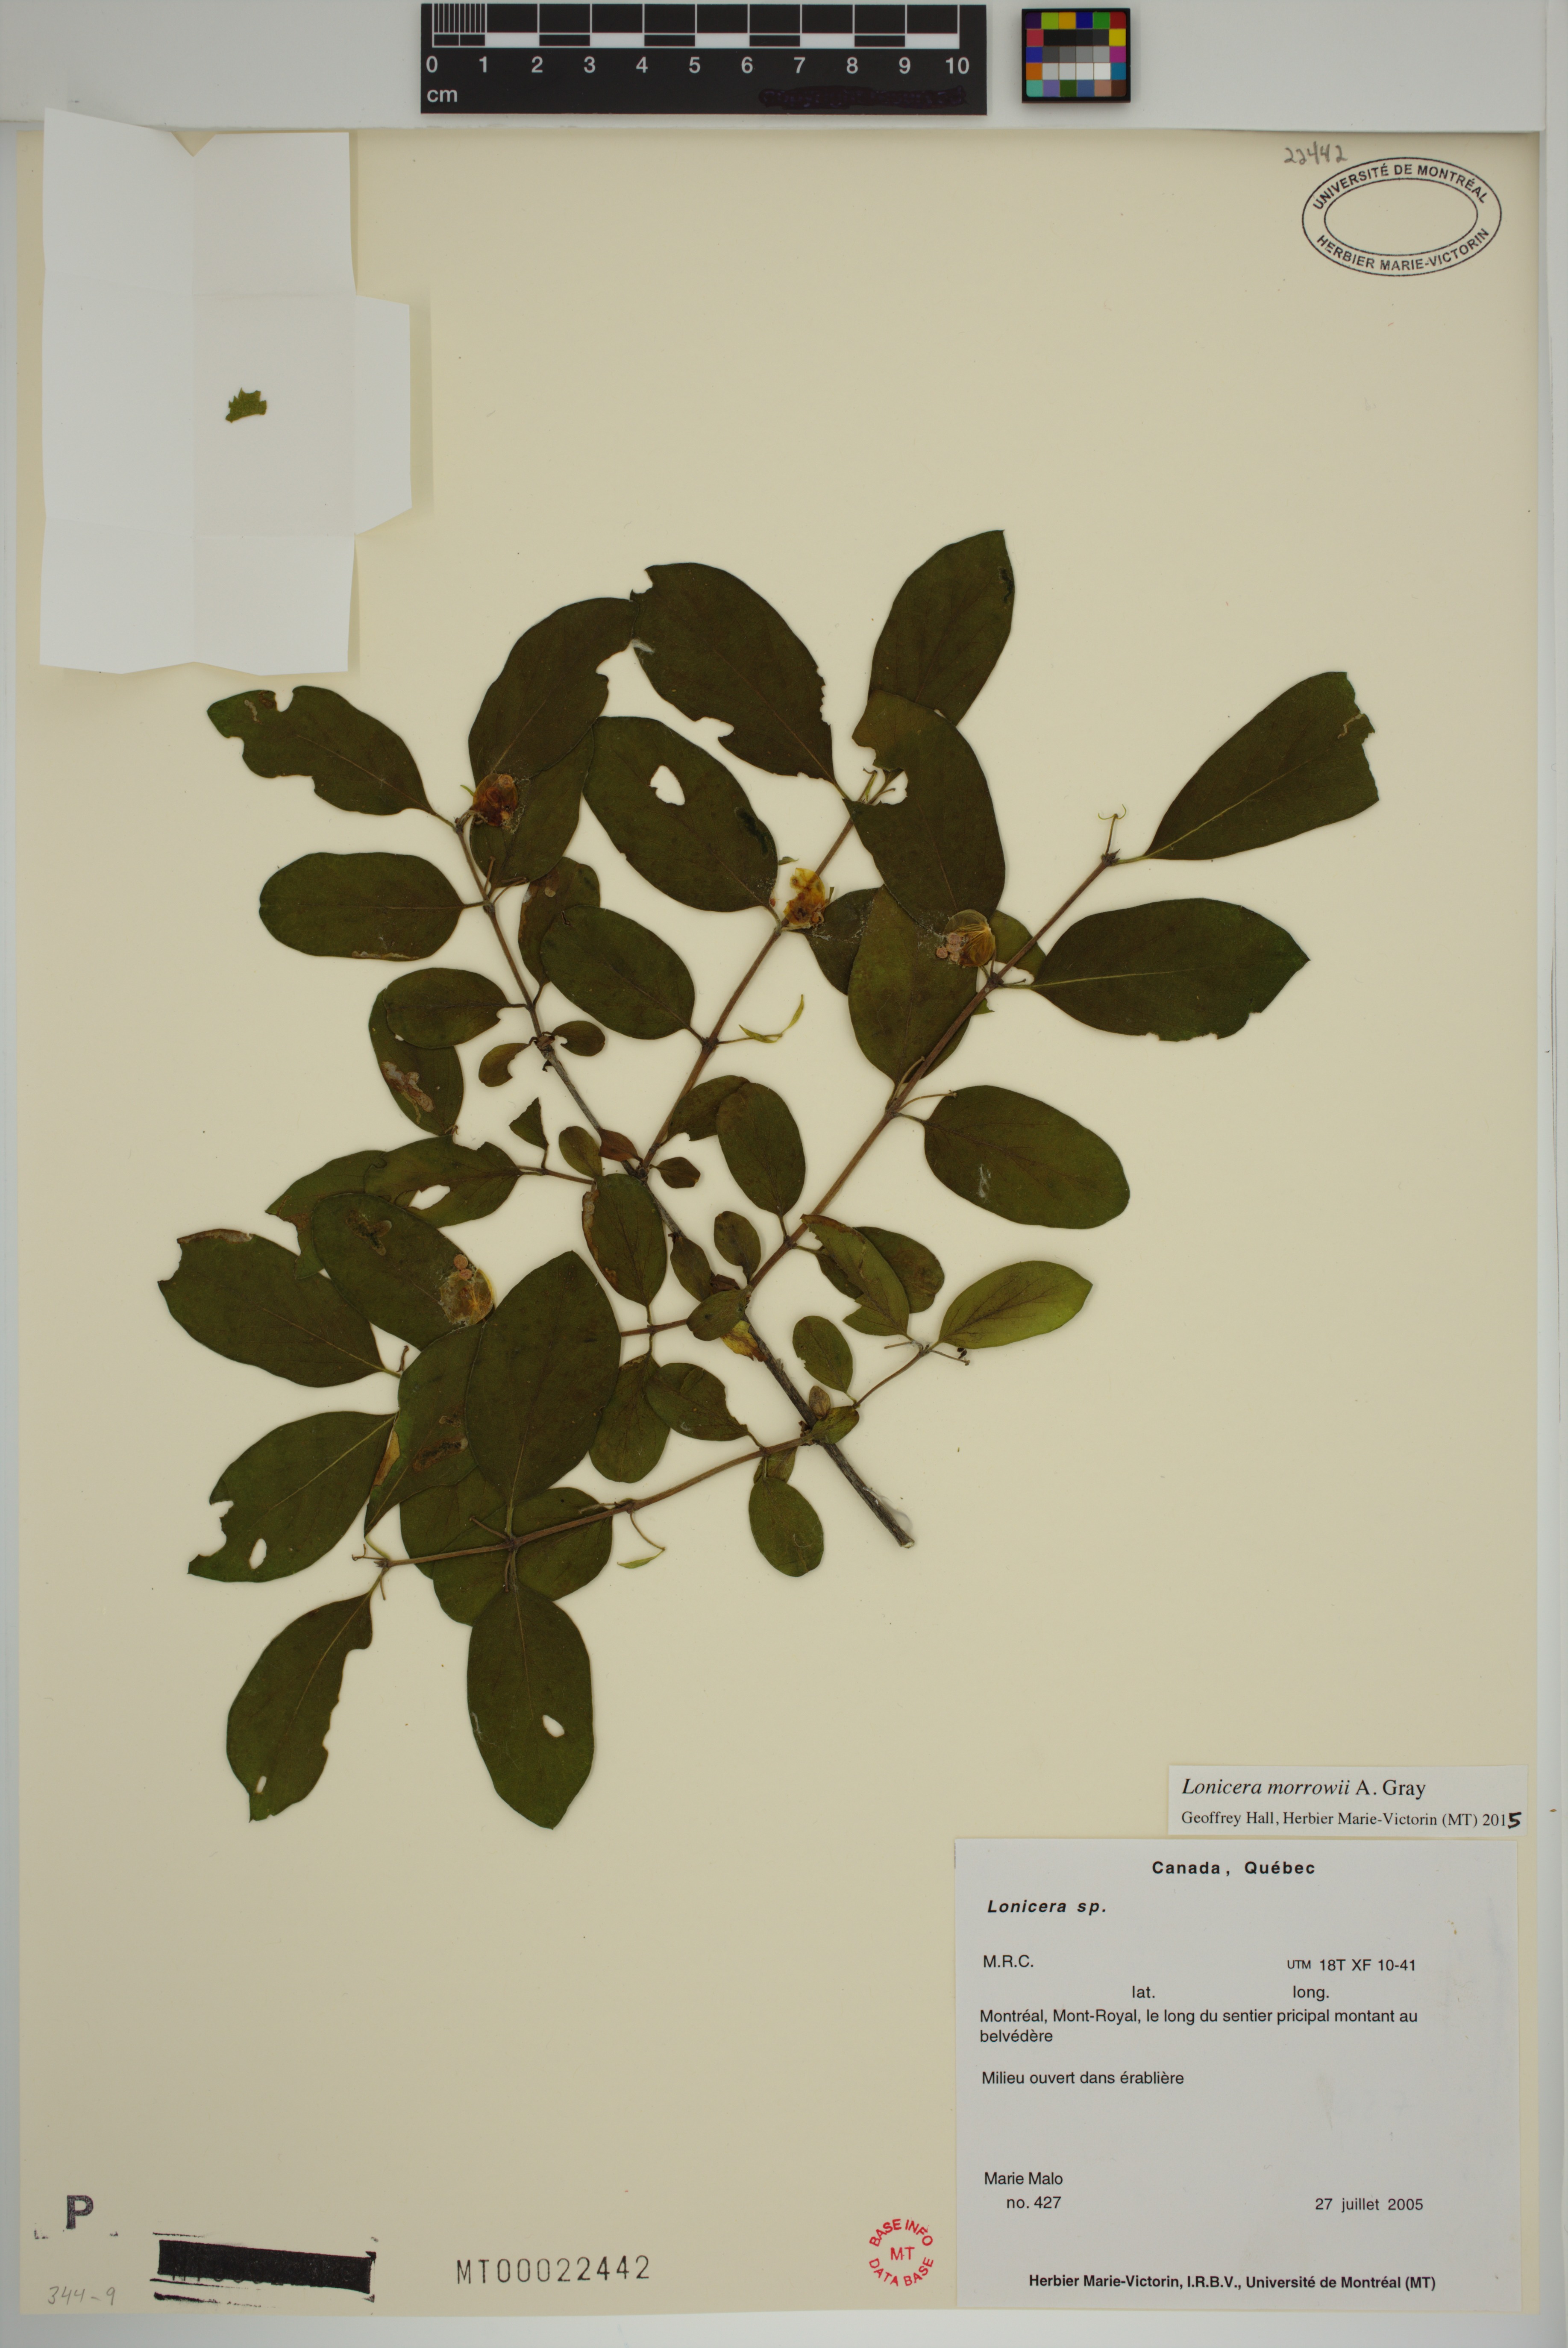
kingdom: Plantae
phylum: Tracheophyta
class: Magnoliopsida
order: Dipsacales
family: Caprifoliaceae
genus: Lonicera
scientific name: Lonicera tatarica
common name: Tatarian honeysuckle
